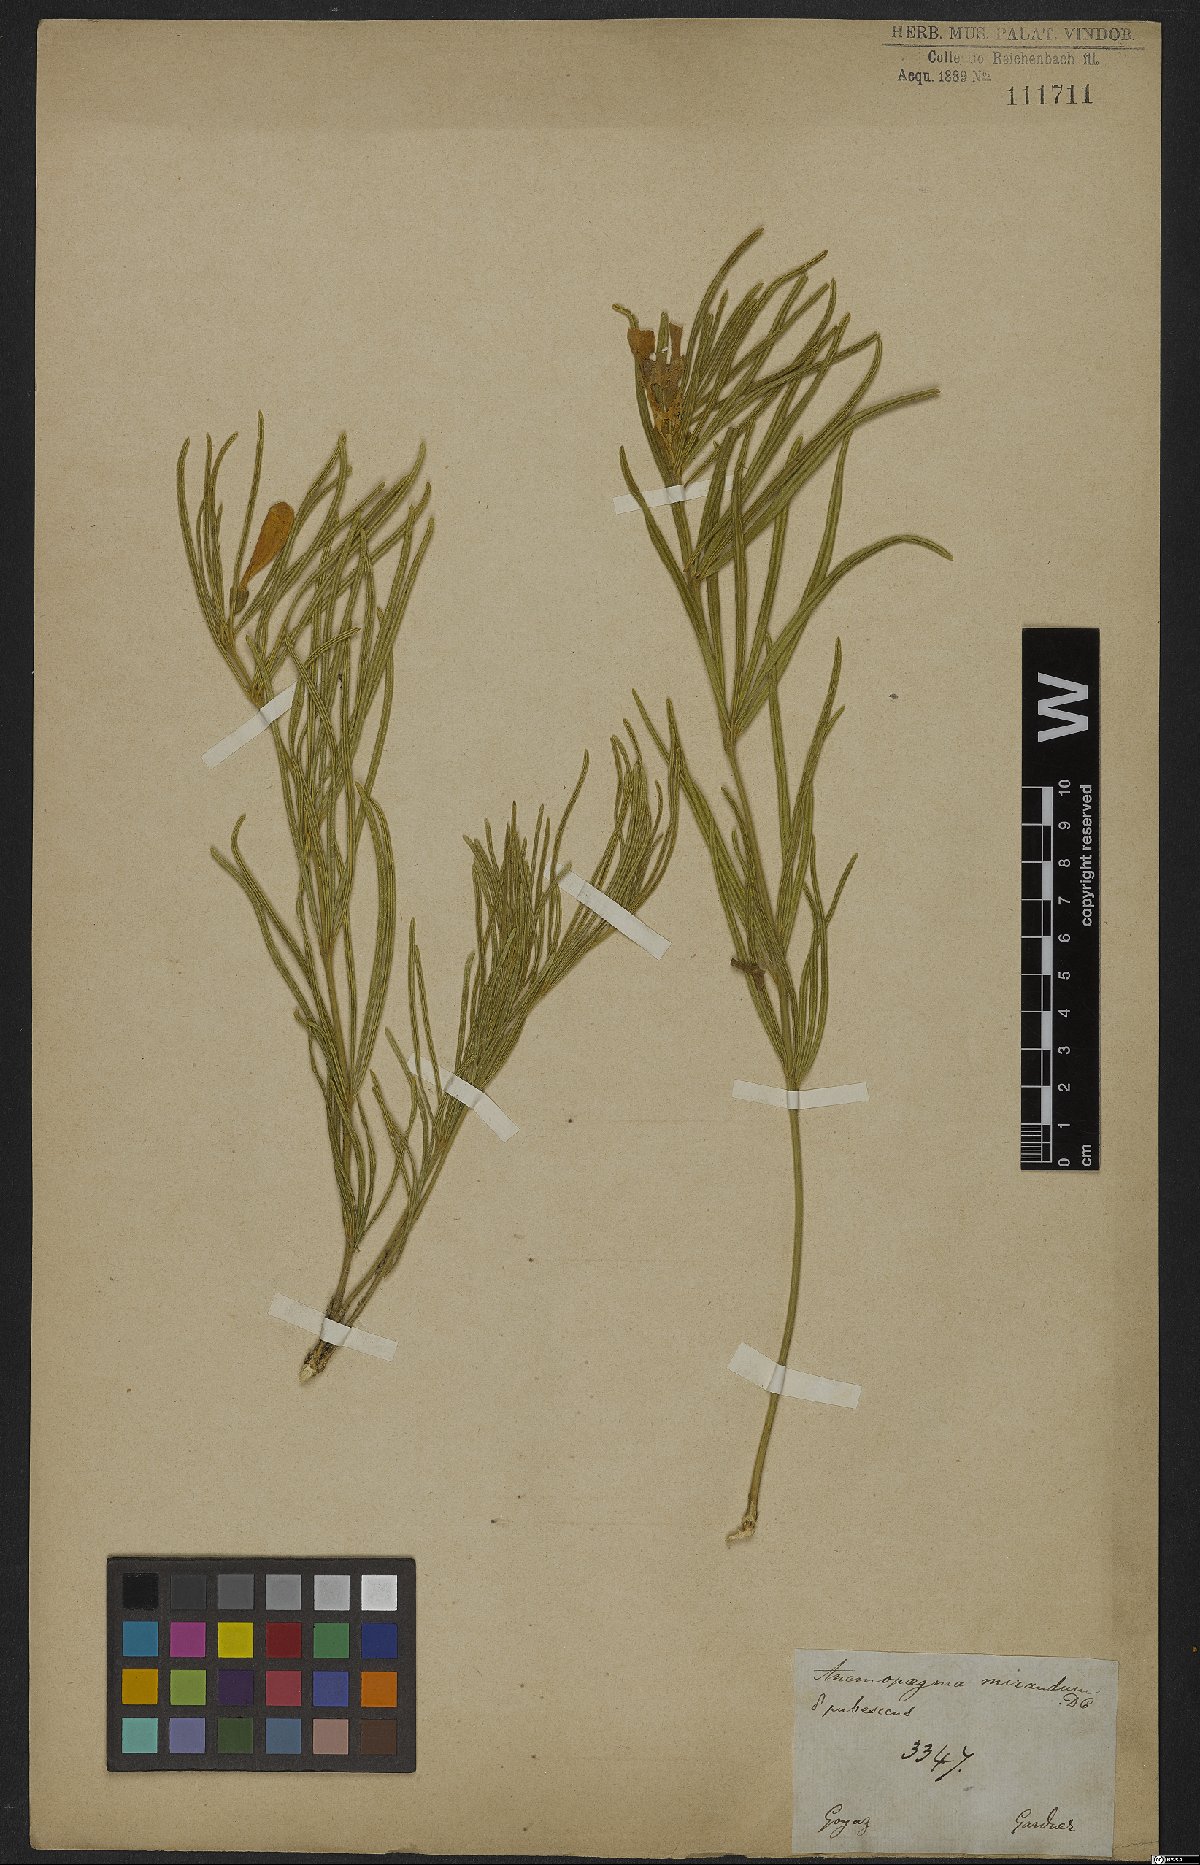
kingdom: Plantae
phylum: Tracheophyta
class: Magnoliopsida
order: Lamiales
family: Bignoniaceae
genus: Anemopaegma
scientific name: Anemopaegma arvense
